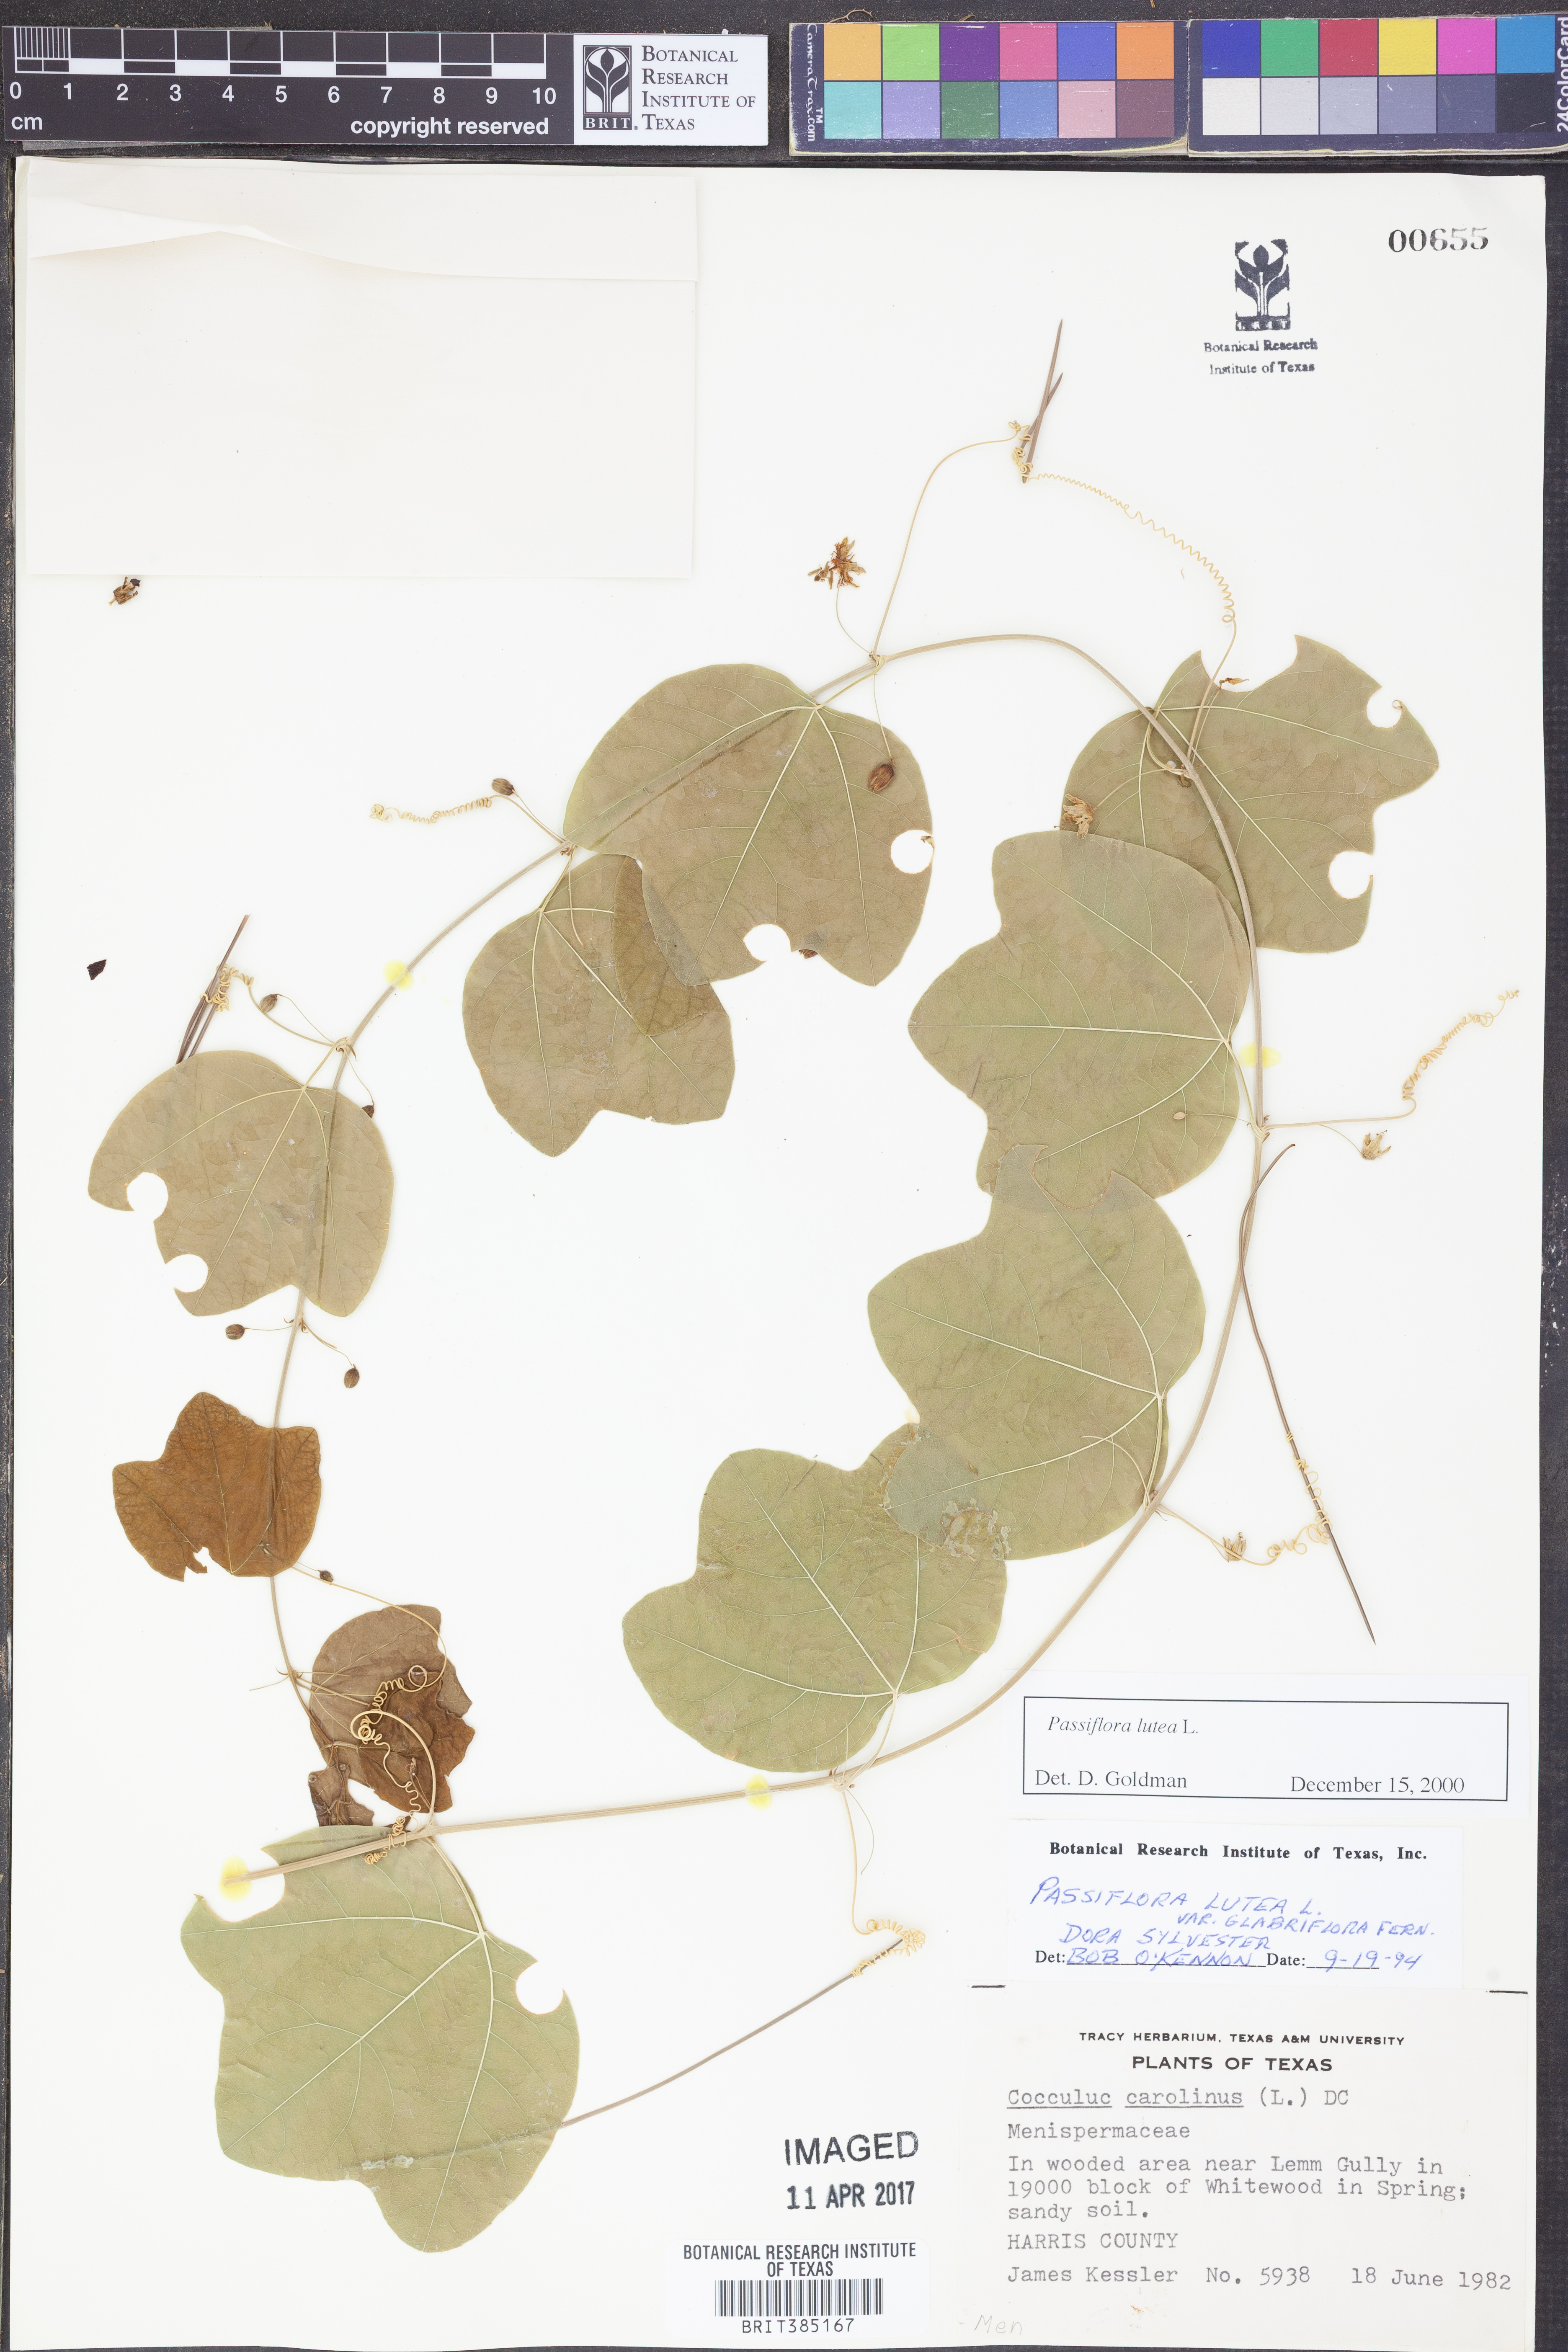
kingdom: Plantae
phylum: Tracheophyta
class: Magnoliopsida
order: Malpighiales
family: Passifloraceae
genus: Passiflora
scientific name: Passiflora lutea
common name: Yellow passionflower
